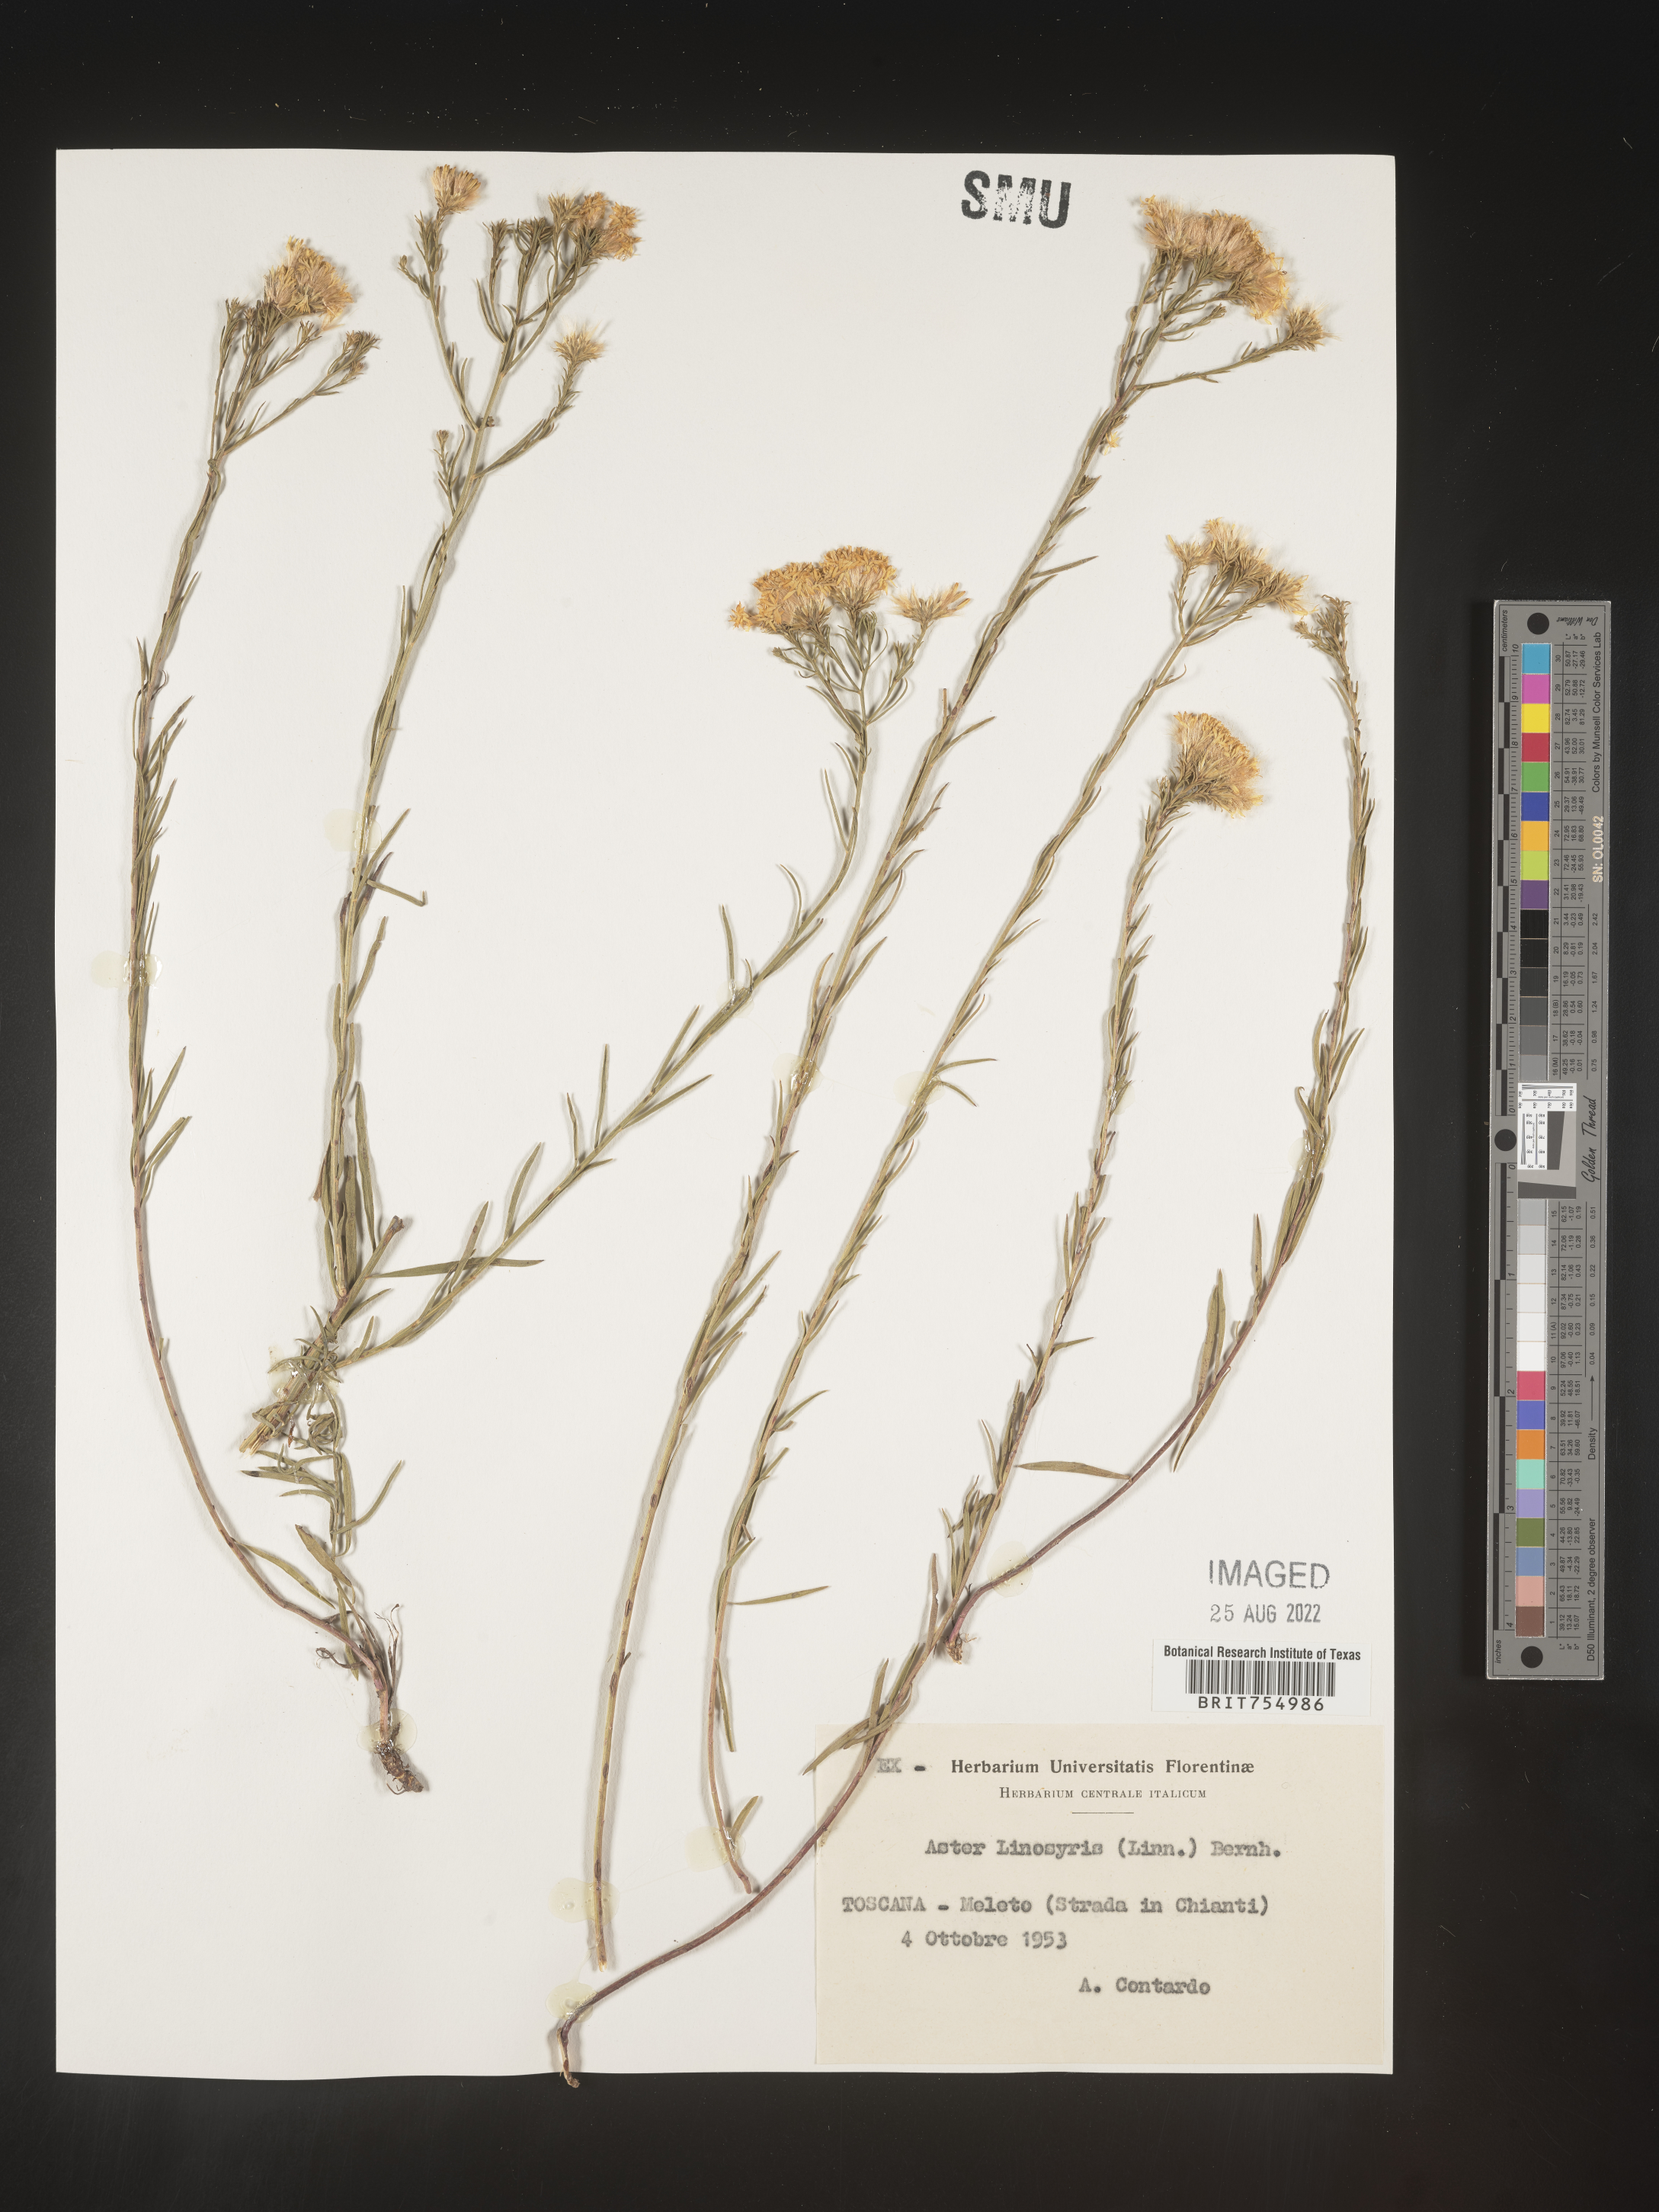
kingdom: Plantae
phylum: Tracheophyta
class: Magnoliopsida
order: Asterales
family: Asteraceae
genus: Symphyotrichum
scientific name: Symphyotrichum
